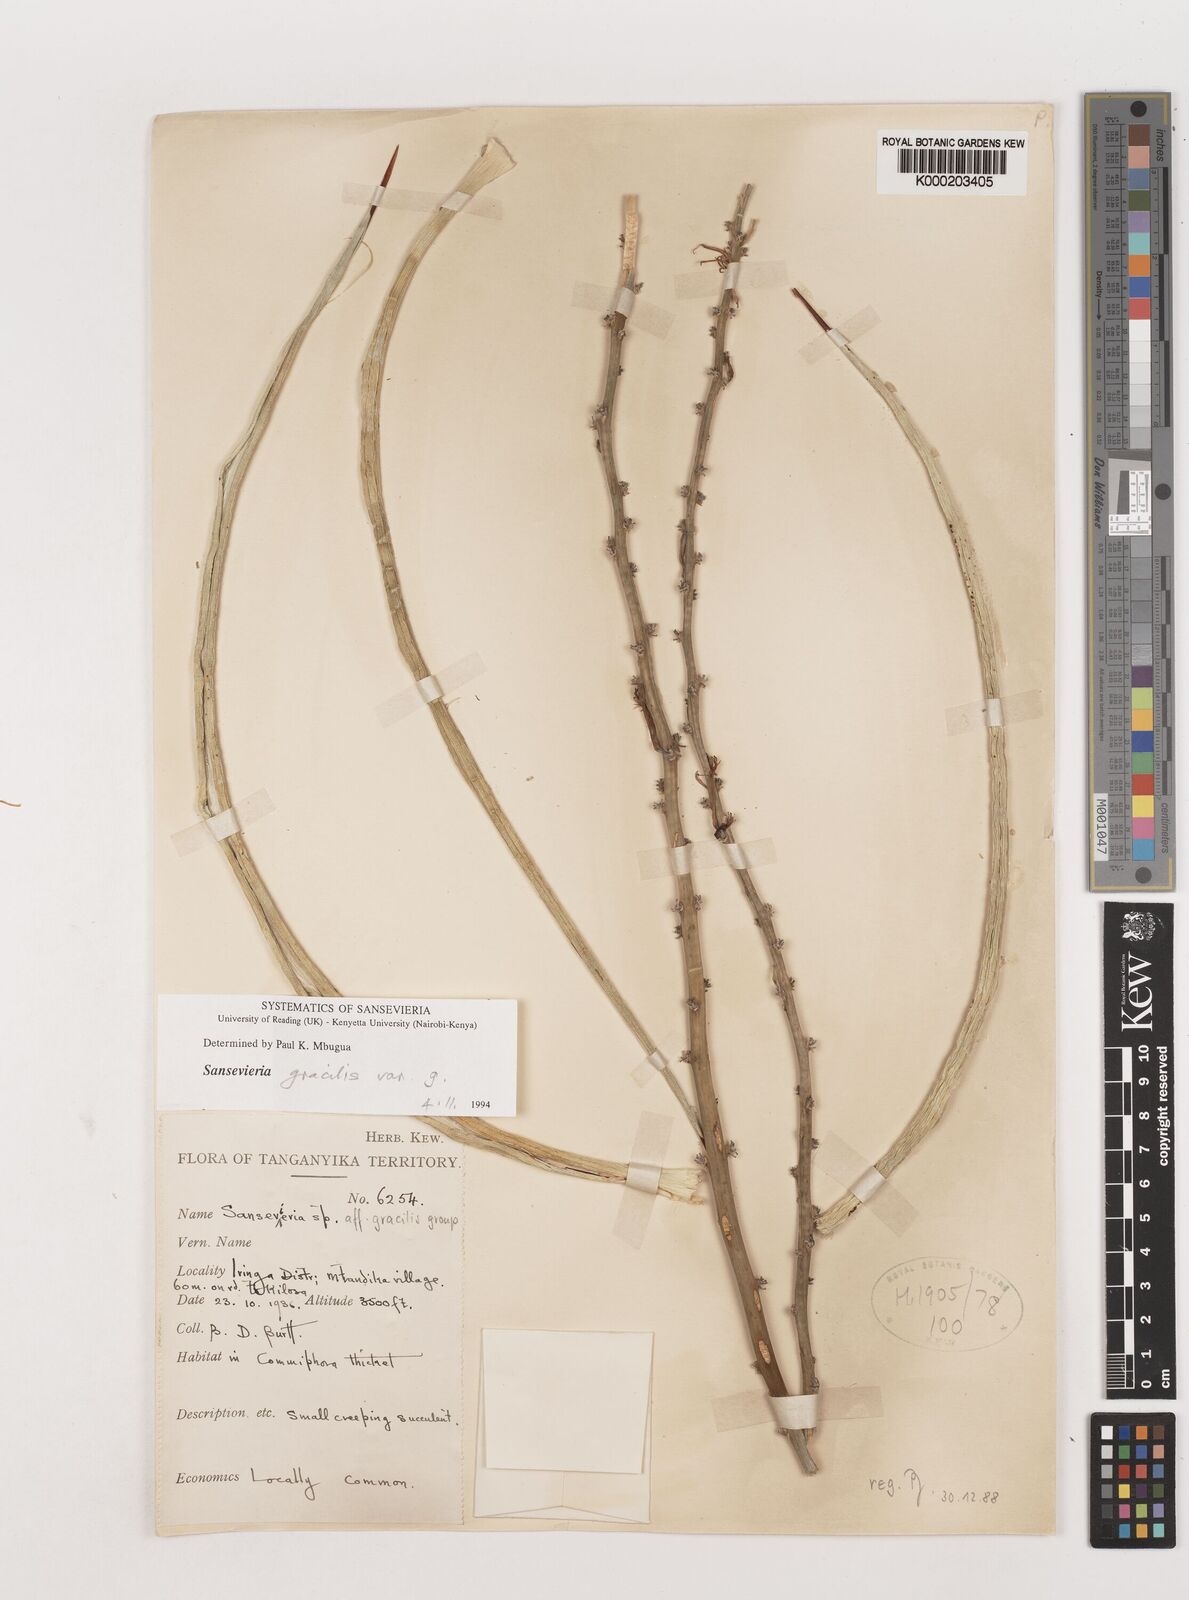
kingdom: Plantae
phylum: Tracheophyta
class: Liliopsida
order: Asparagales
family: Asparagaceae
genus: Dracaena
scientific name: Dracaena serpenta
